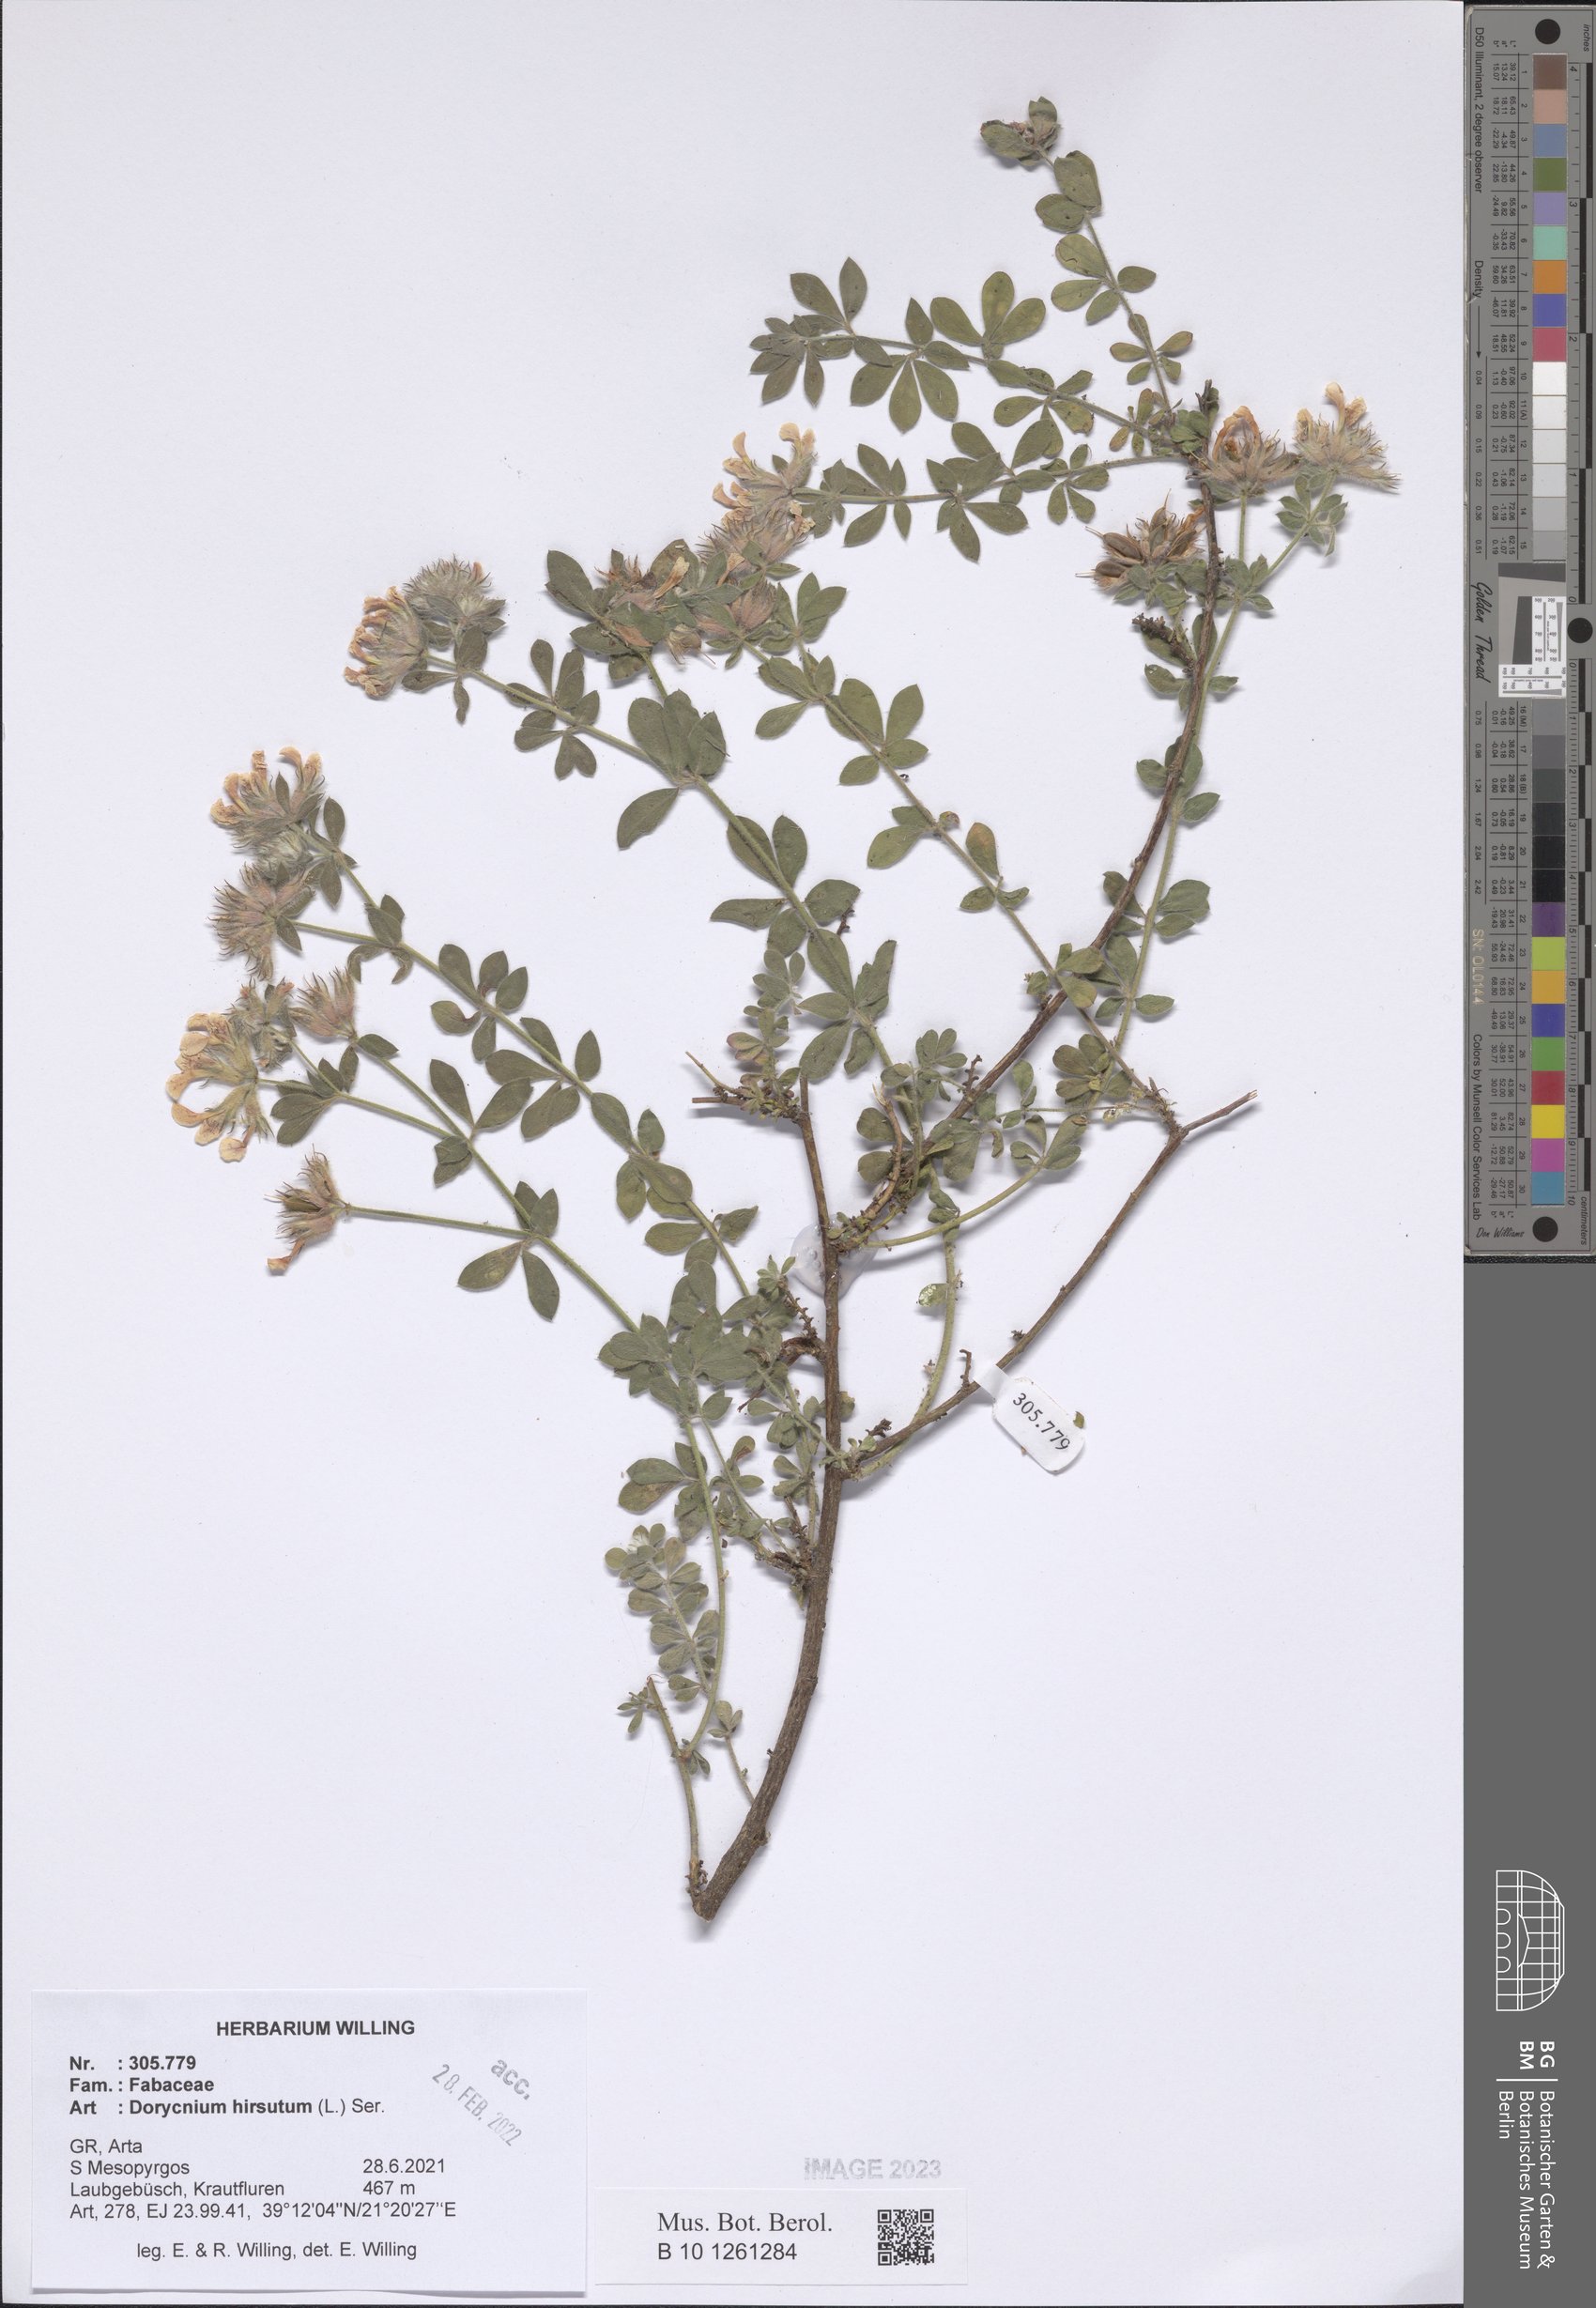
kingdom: Plantae
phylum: Tracheophyta
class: Magnoliopsida
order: Fabales
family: Fabaceae
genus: Lotus
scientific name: Lotus hirsutus
